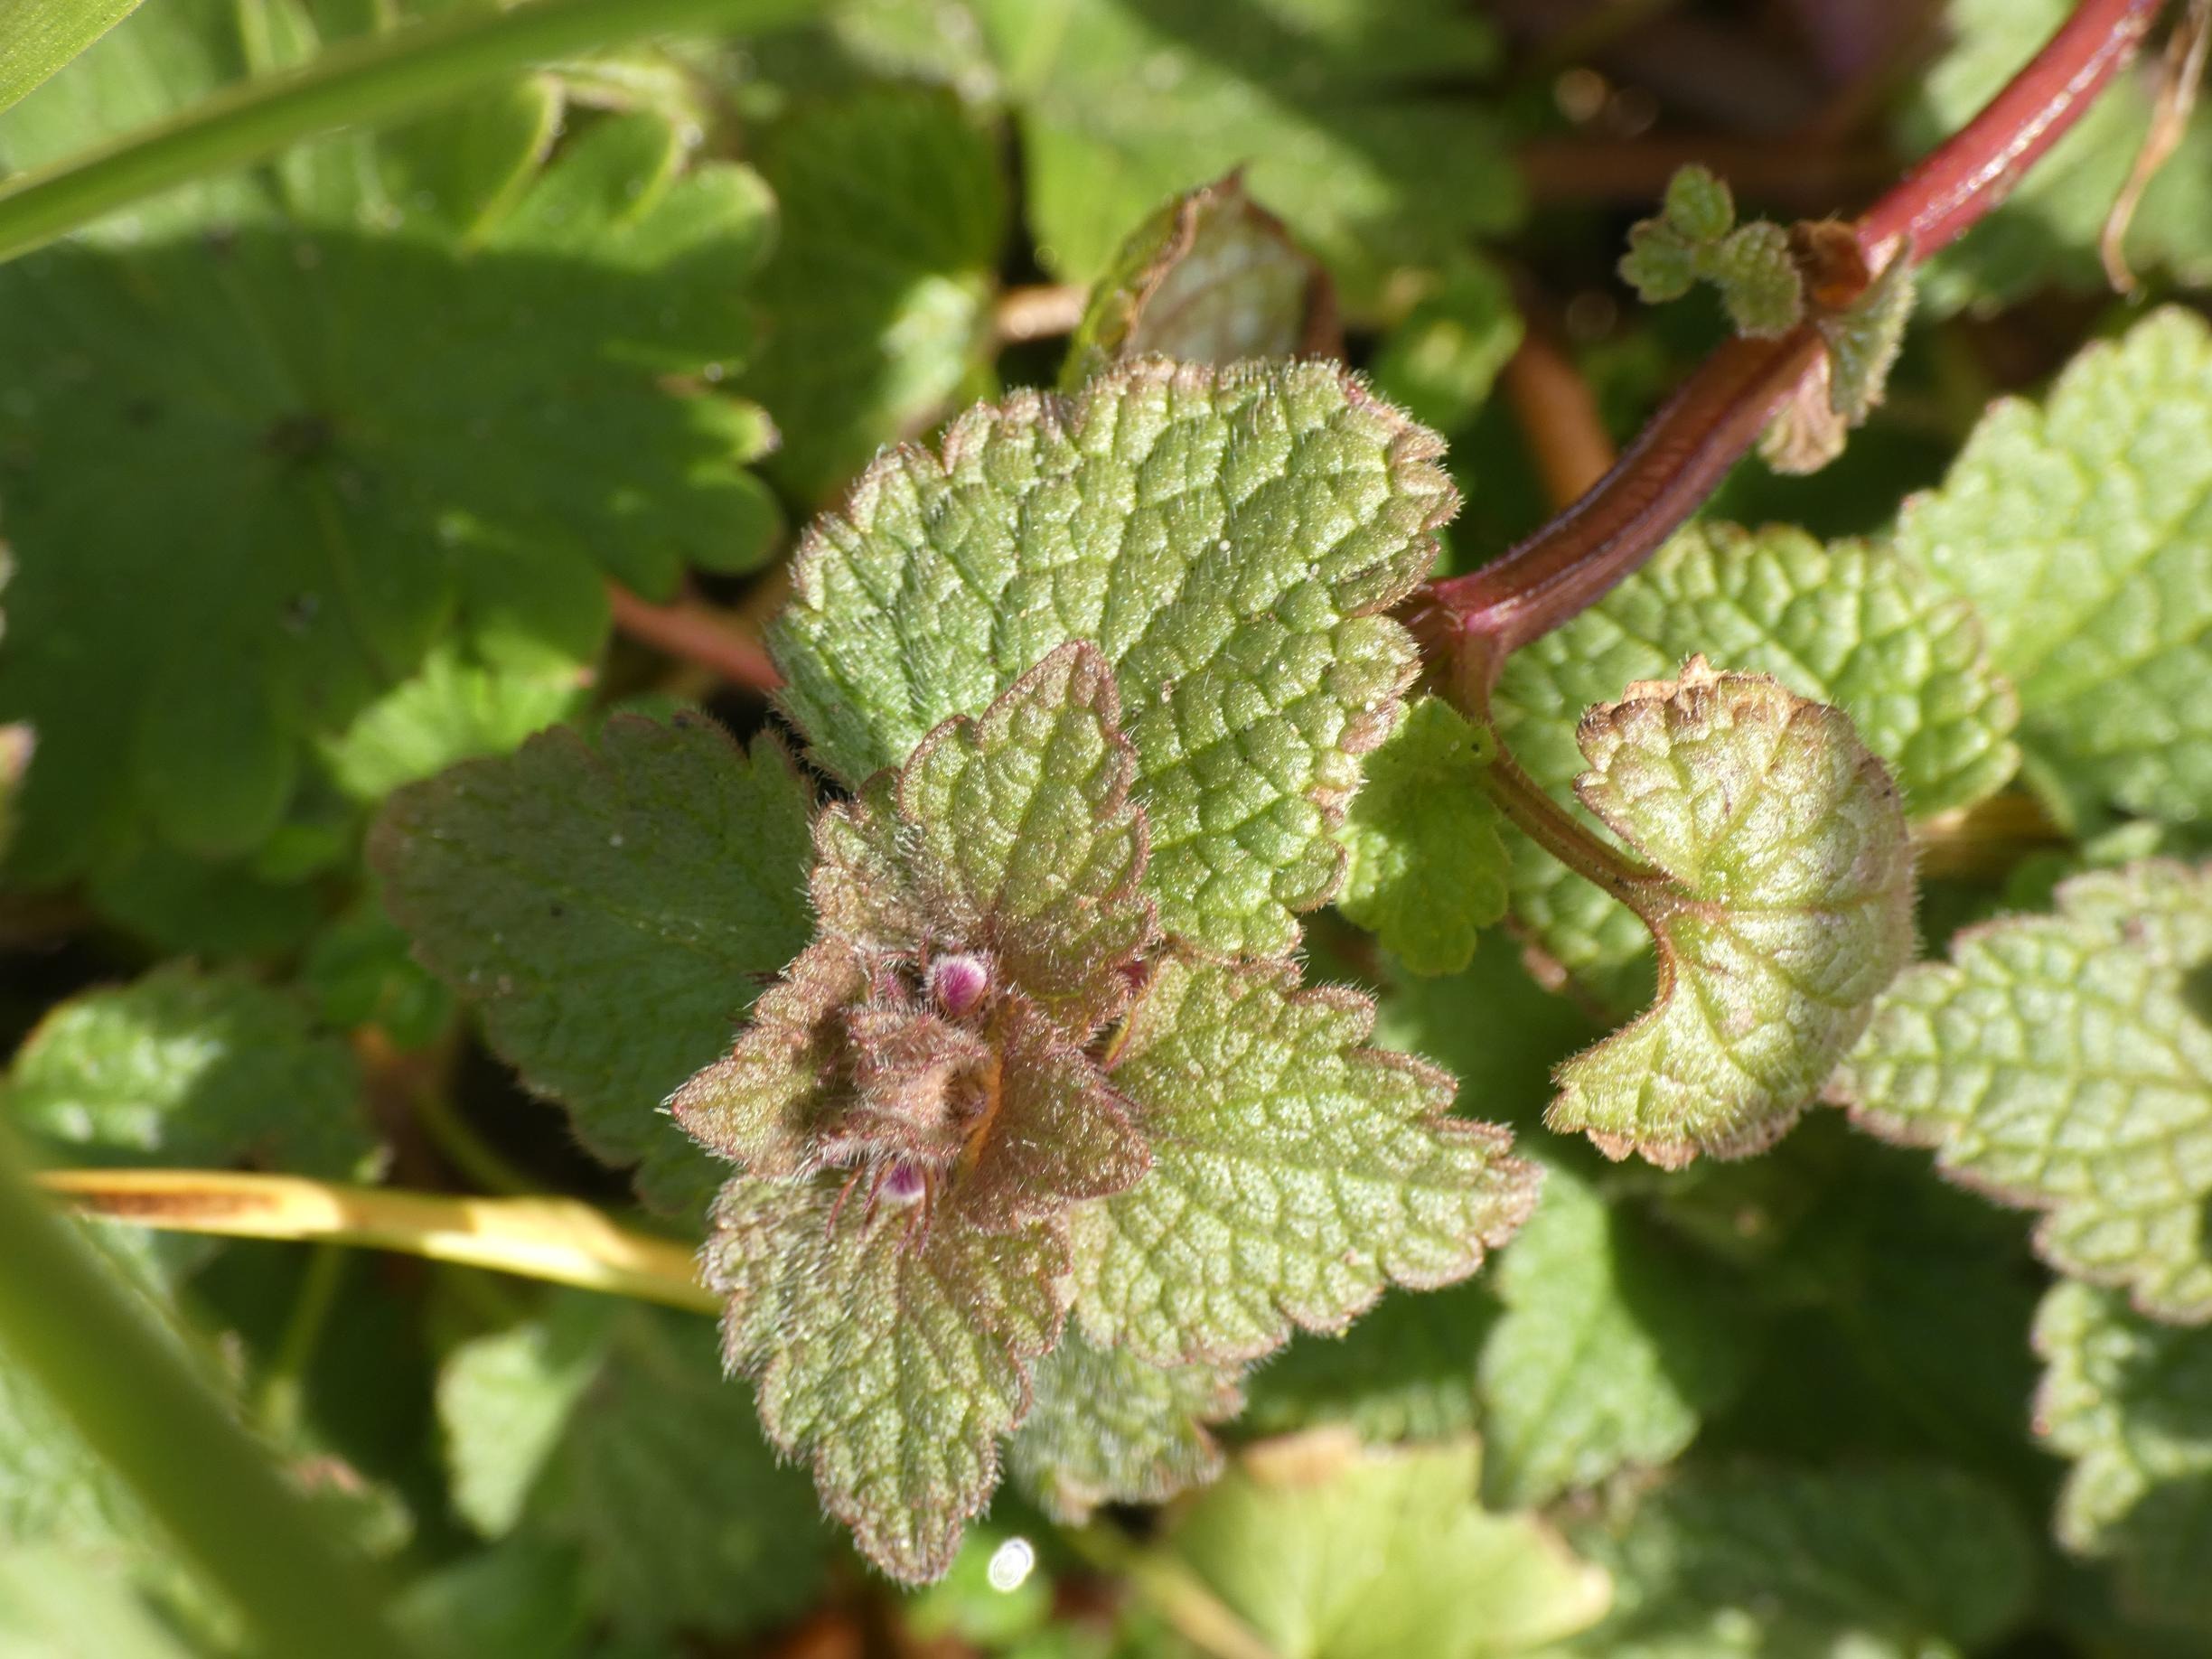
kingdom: Plantae
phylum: Tracheophyta
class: Magnoliopsida
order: Lamiales
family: Lamiaceae
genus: Lamium
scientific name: Lamium purpureum
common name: Rød tvetand
